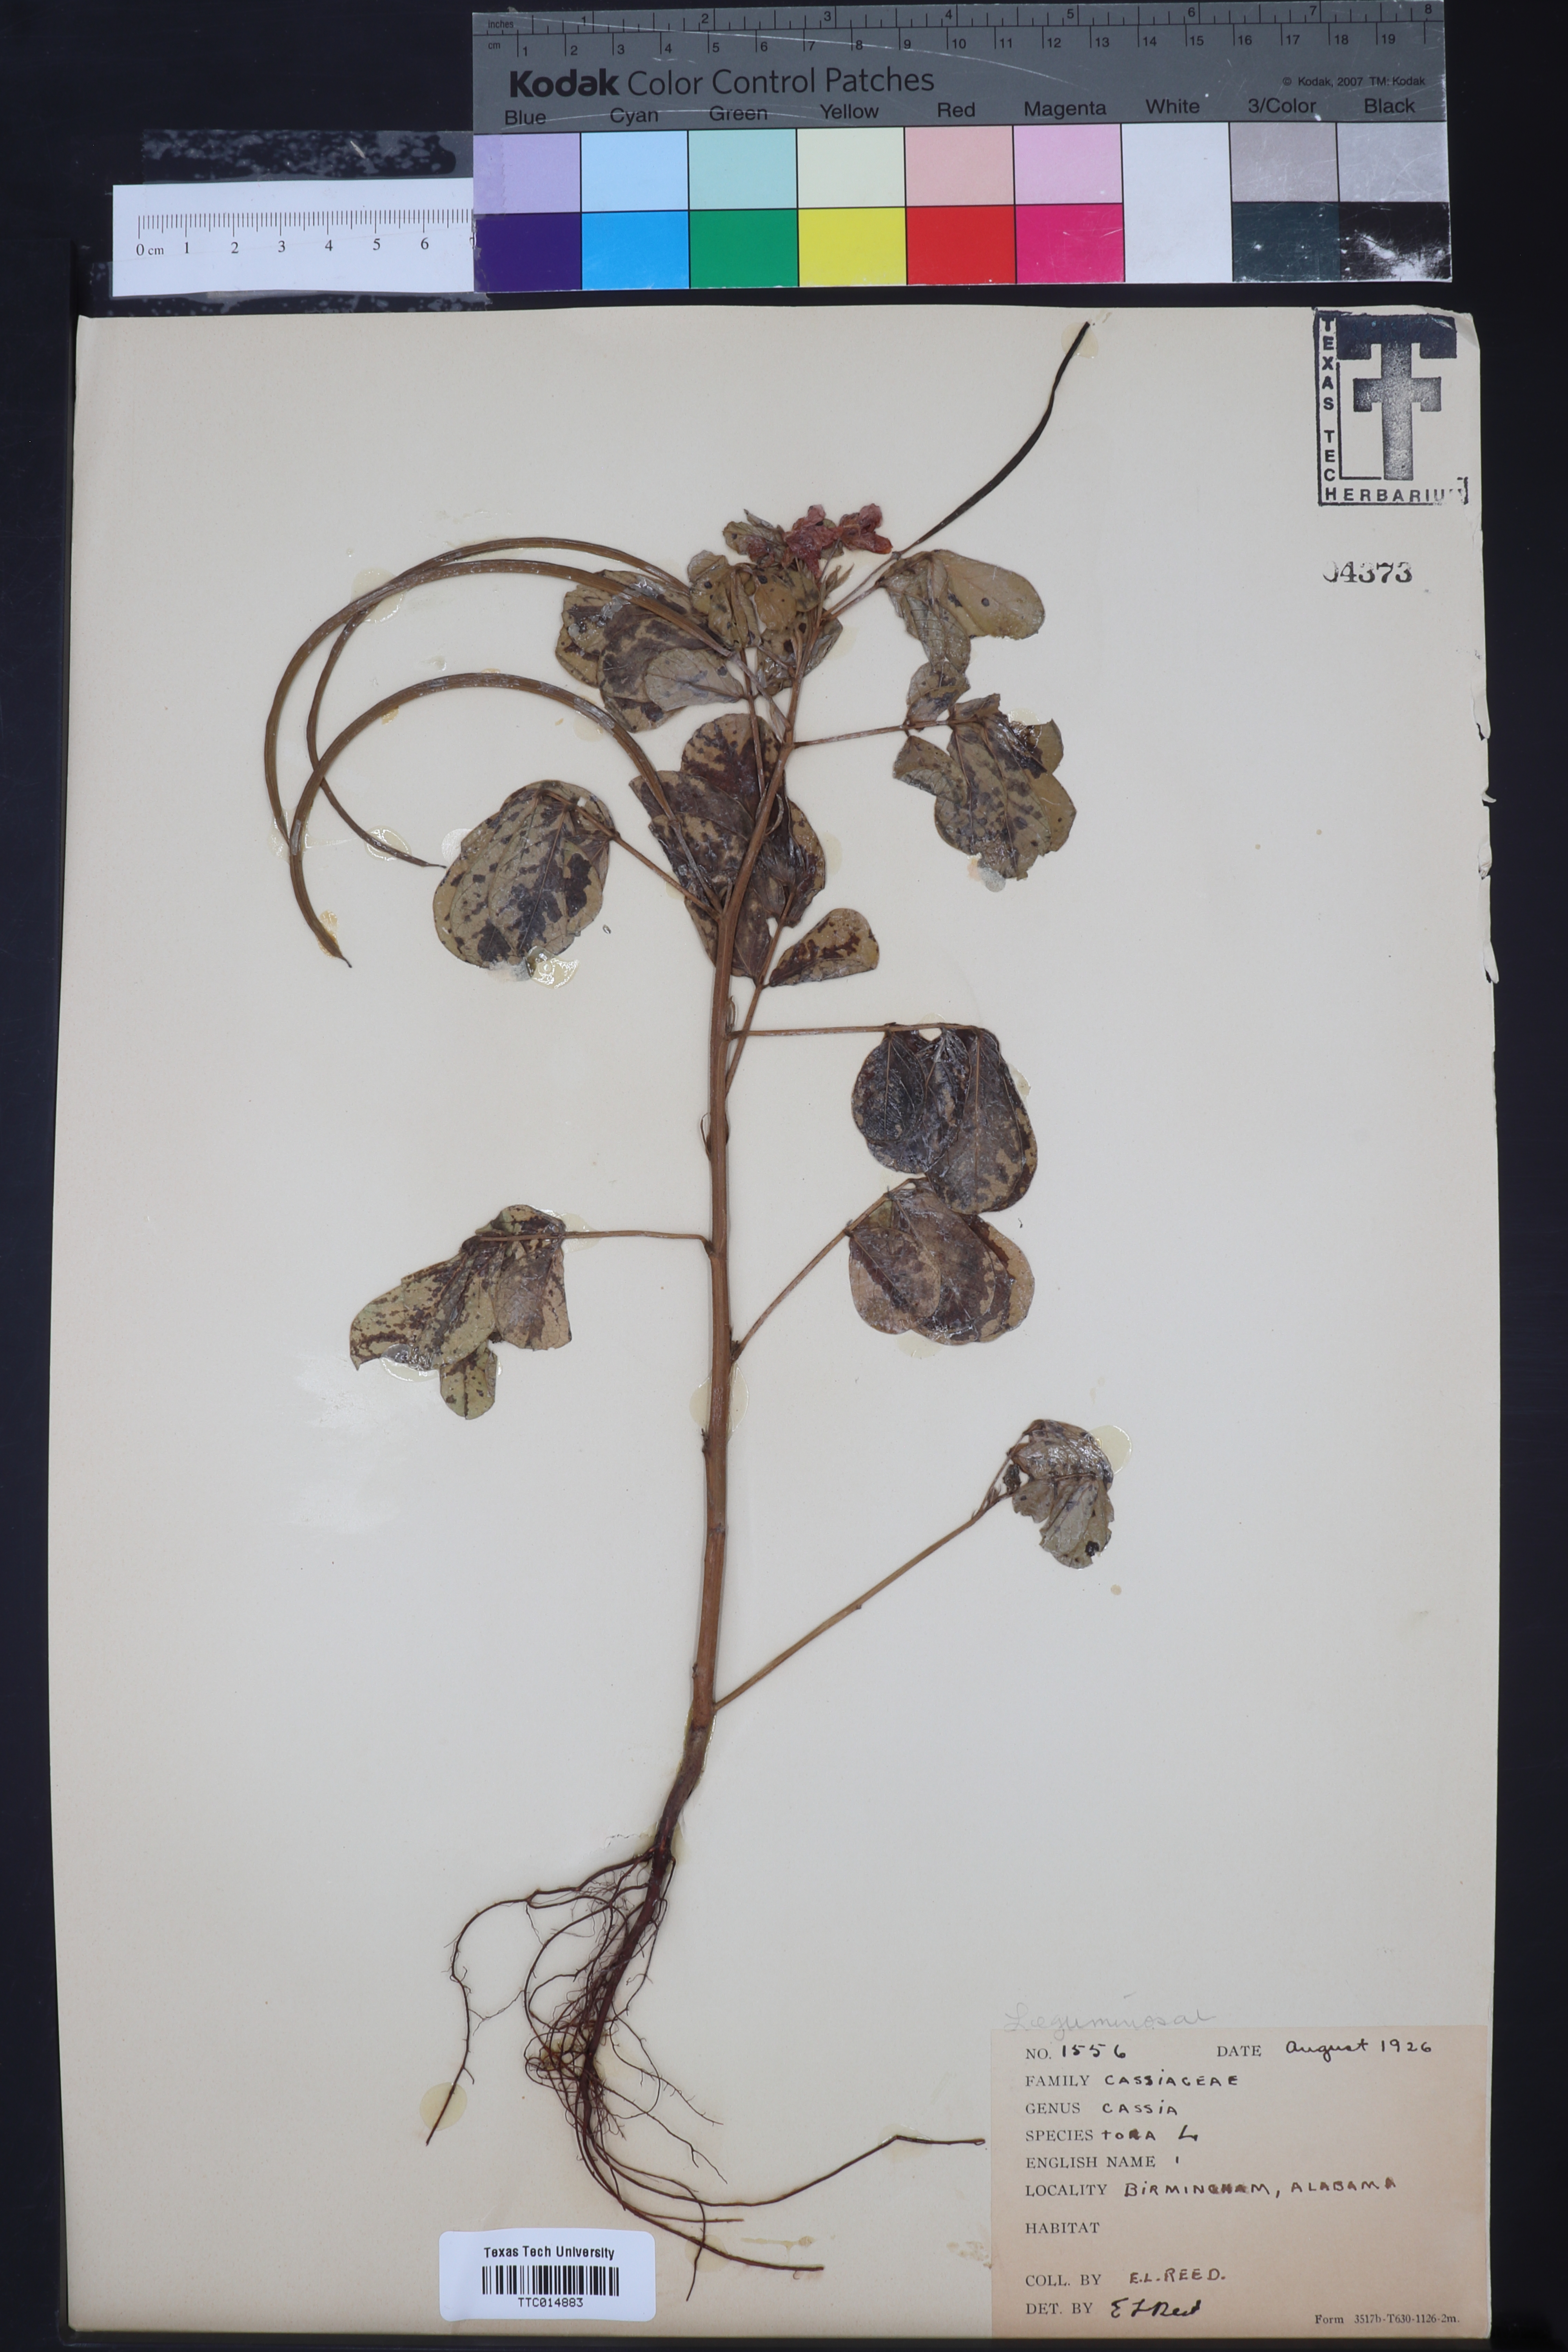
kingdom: Plantae
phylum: Tracheophyta
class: Magnoliopsida
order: Fabales
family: Fabaceae
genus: Senna
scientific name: Senna tora
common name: Sickle senna
